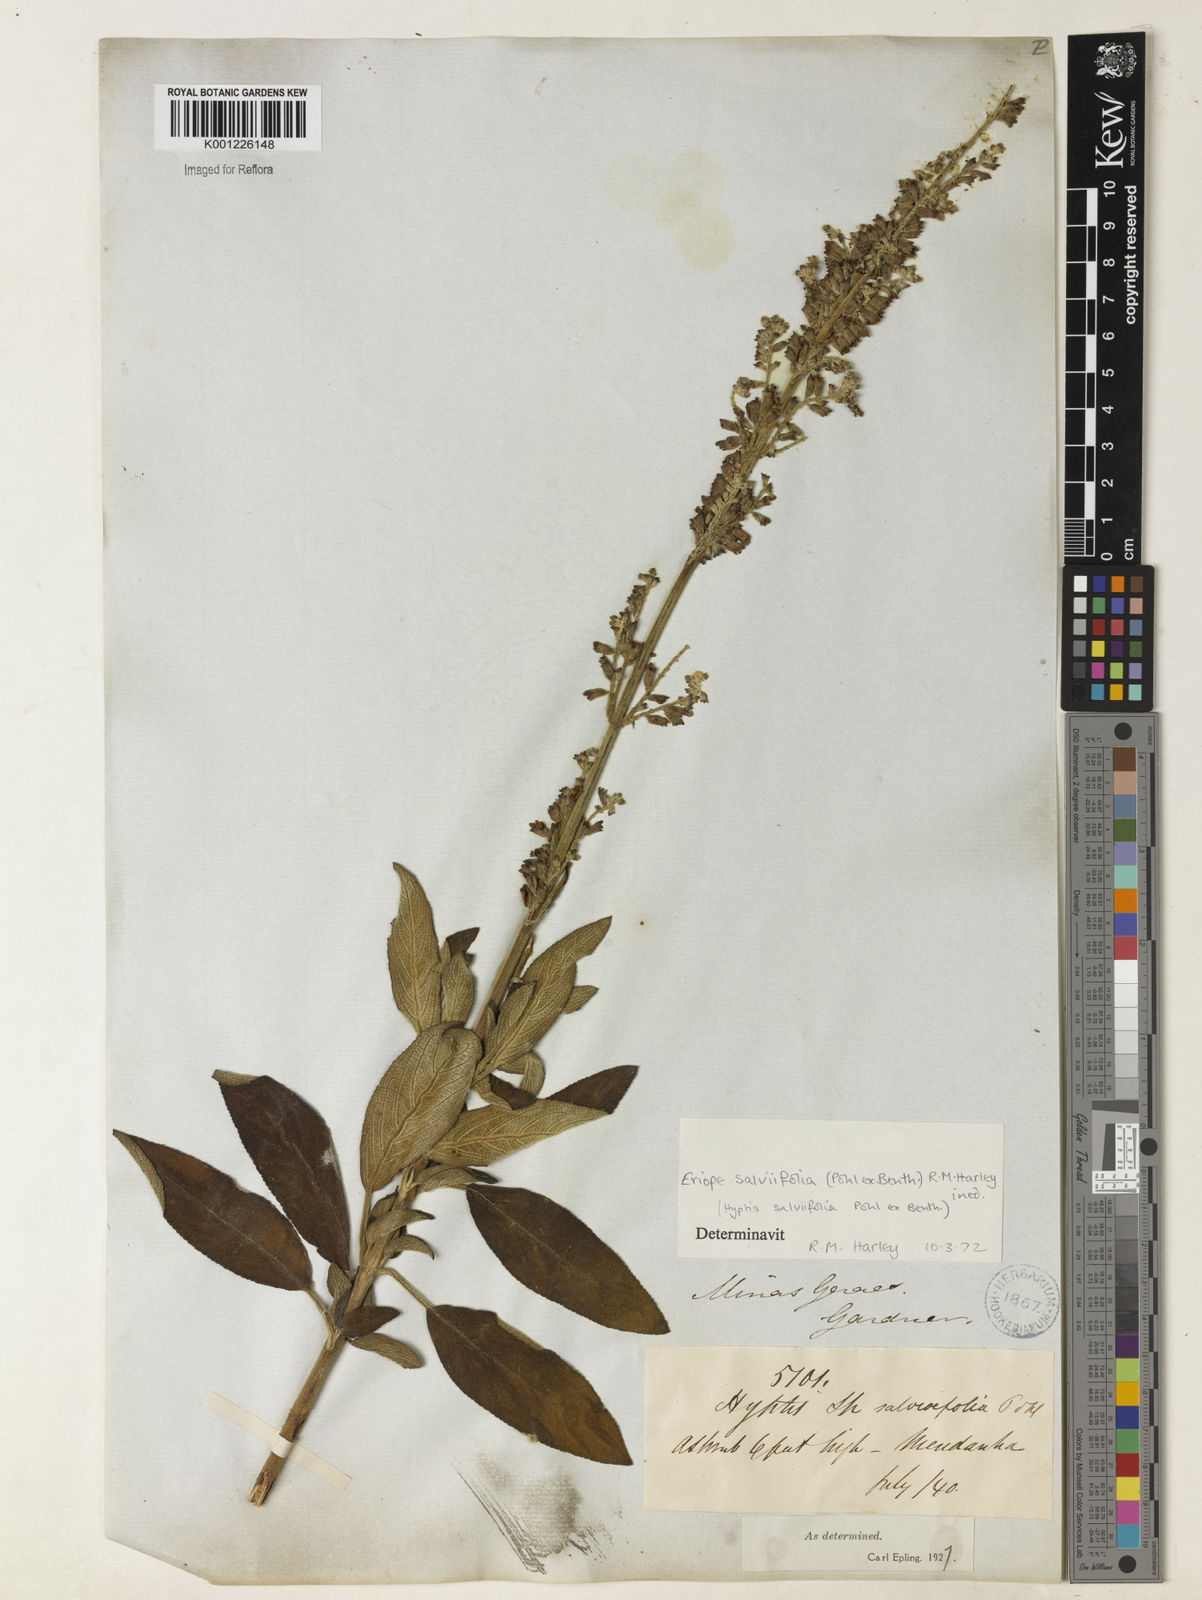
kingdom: Plantae
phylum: Tracheophyta
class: Magnoliopsida
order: Lamiales
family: Lamiaceae
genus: Eriope
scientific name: Eriope salviifolia
